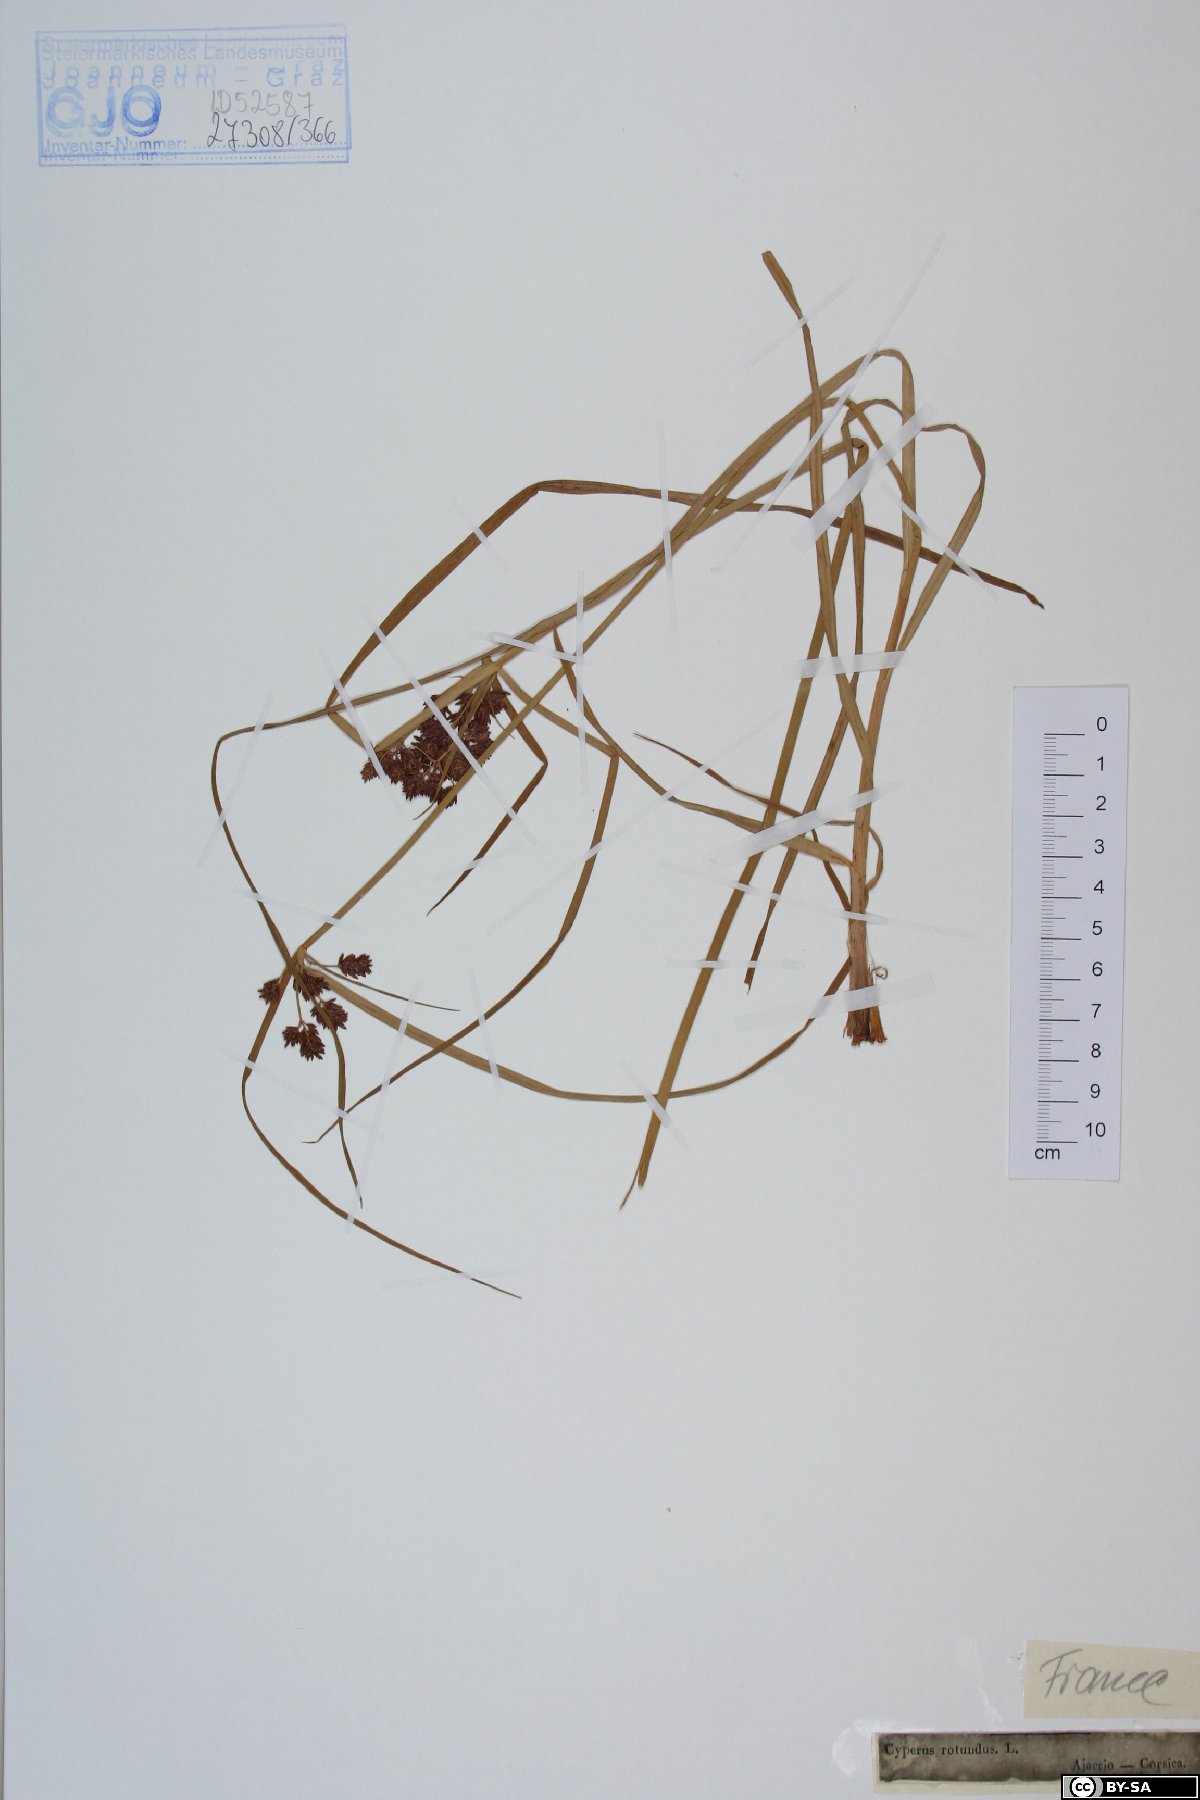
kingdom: Plantae
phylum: Tracheophyta
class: Liliopsida
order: Poales
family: Cyperaceae
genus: Cyperus
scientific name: Cyperus rotundus
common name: Nutgrass
